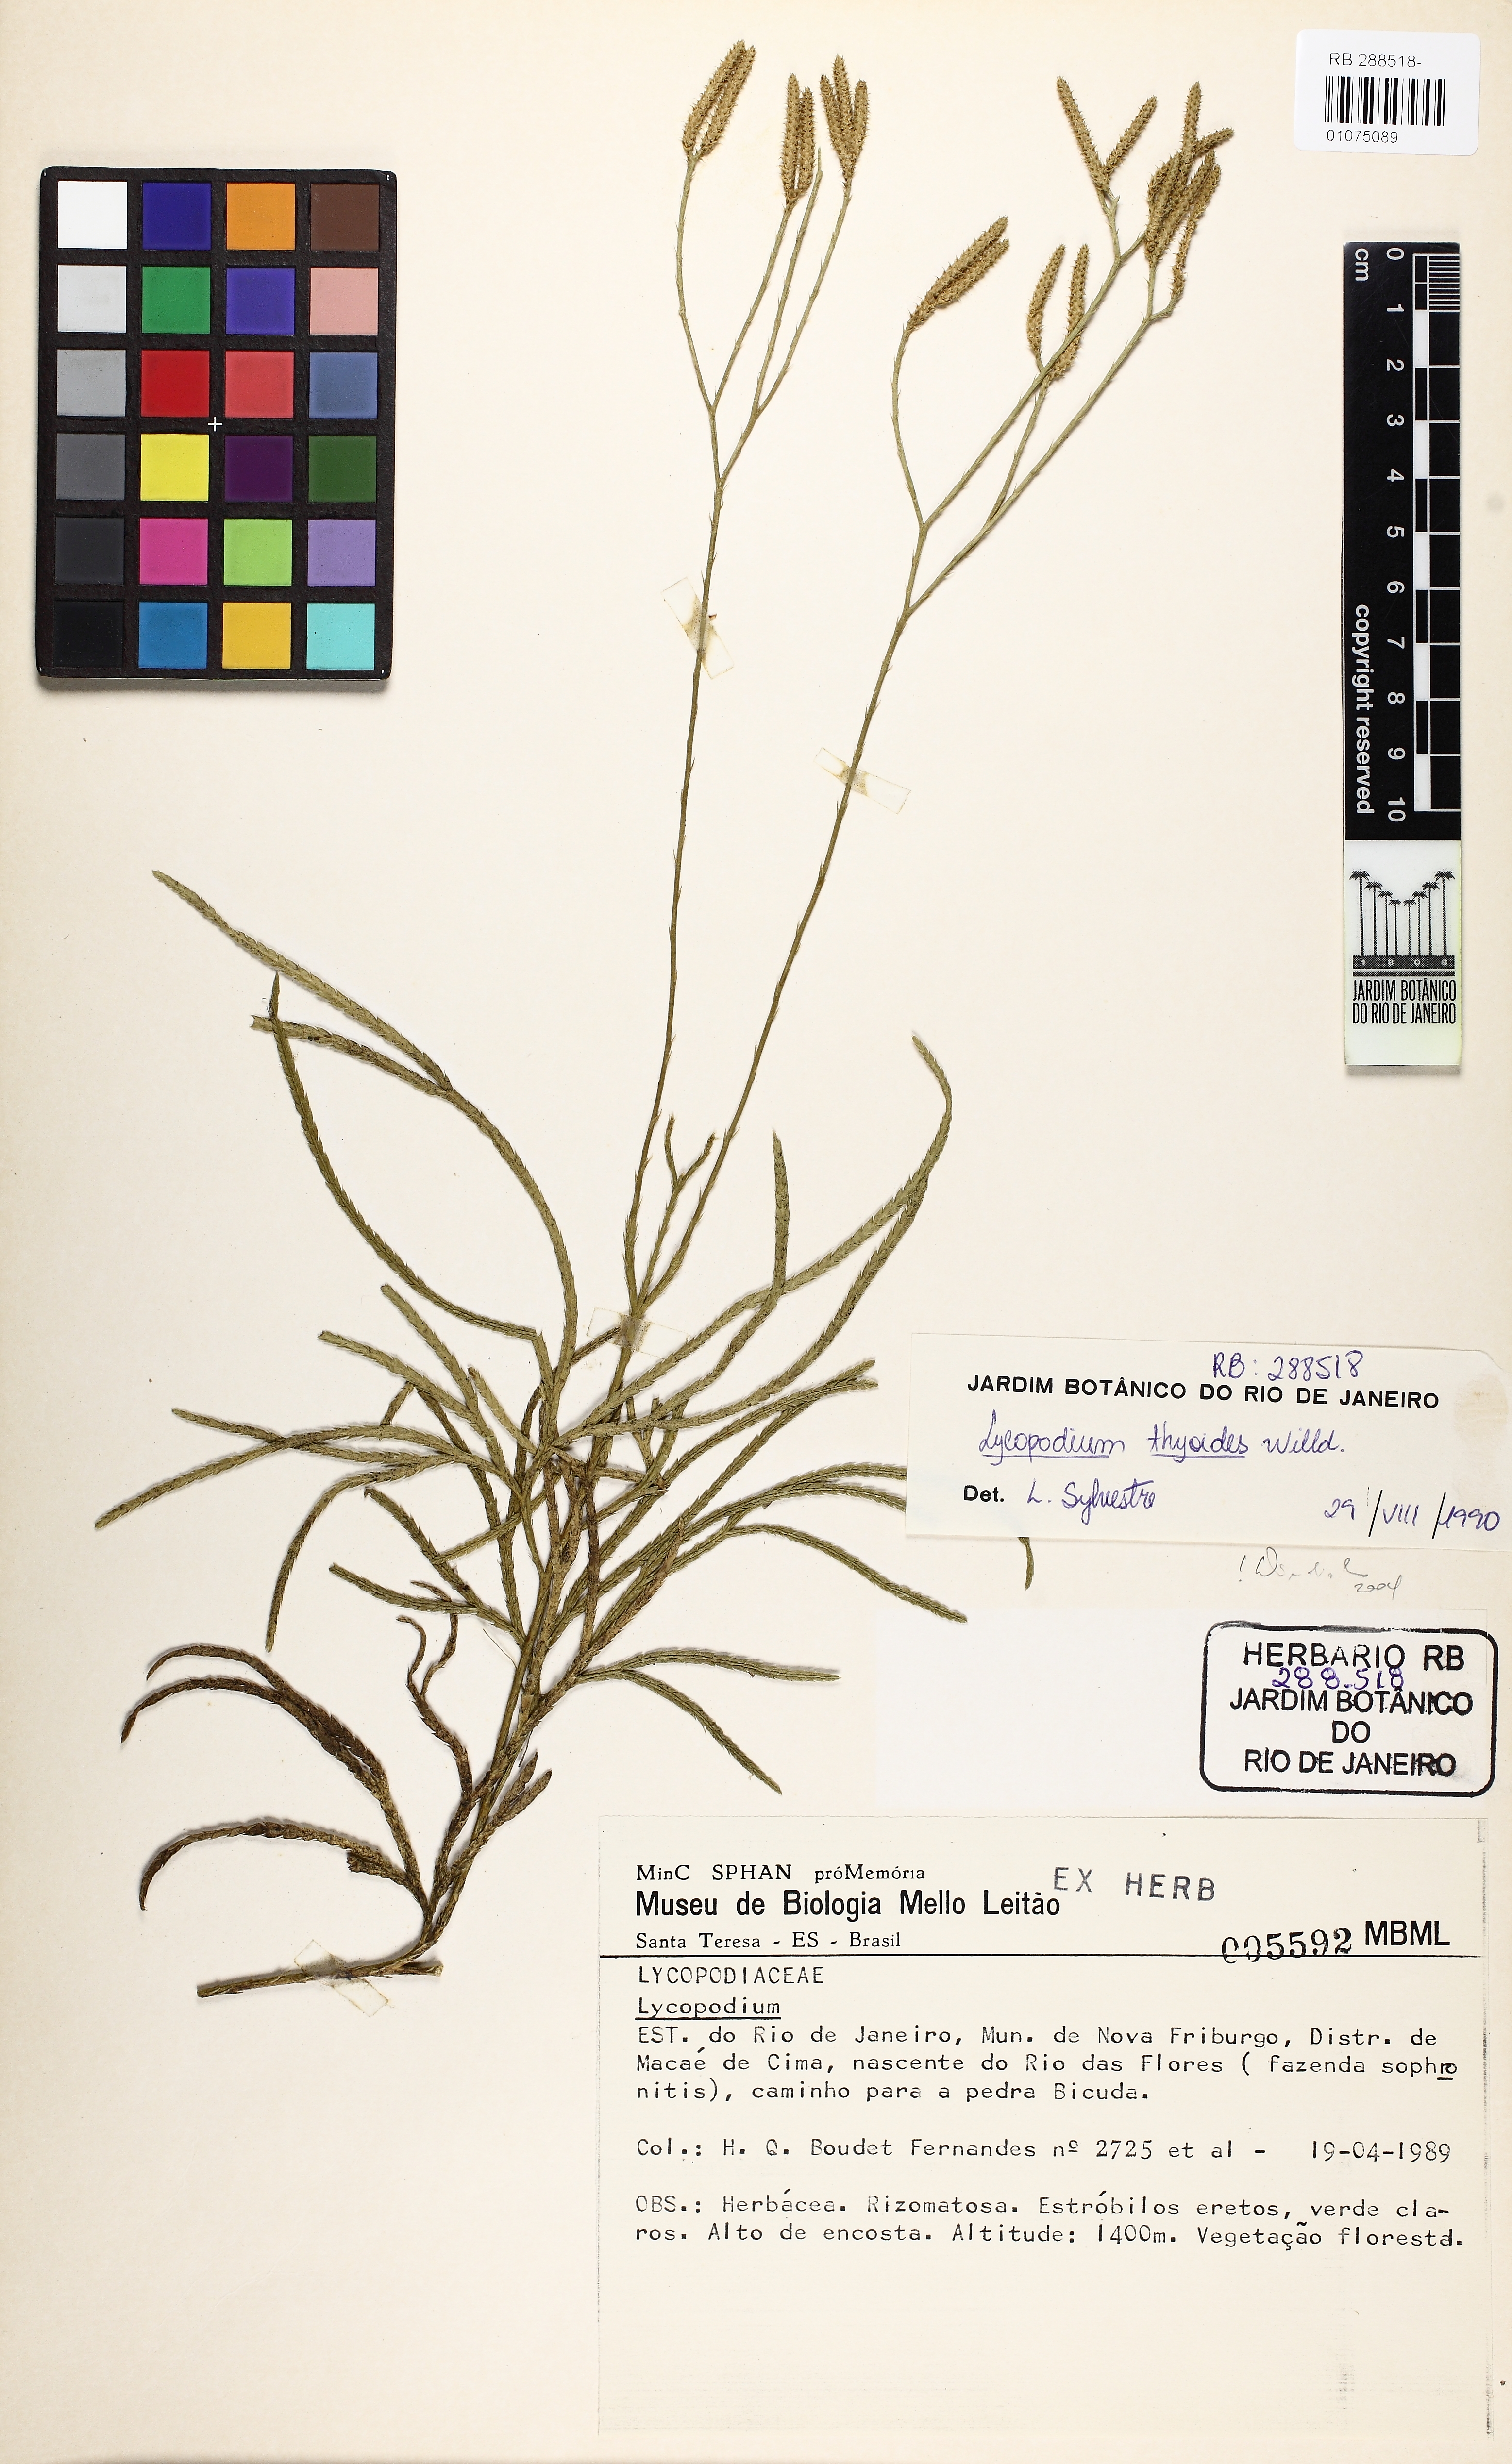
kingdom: Plantae
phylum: Tracheophyta
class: Lycopodiopsida
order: Lycopodiales
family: Lycopodiaceae
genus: Diphasiastrum
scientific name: Diphasiastrum thyoides
